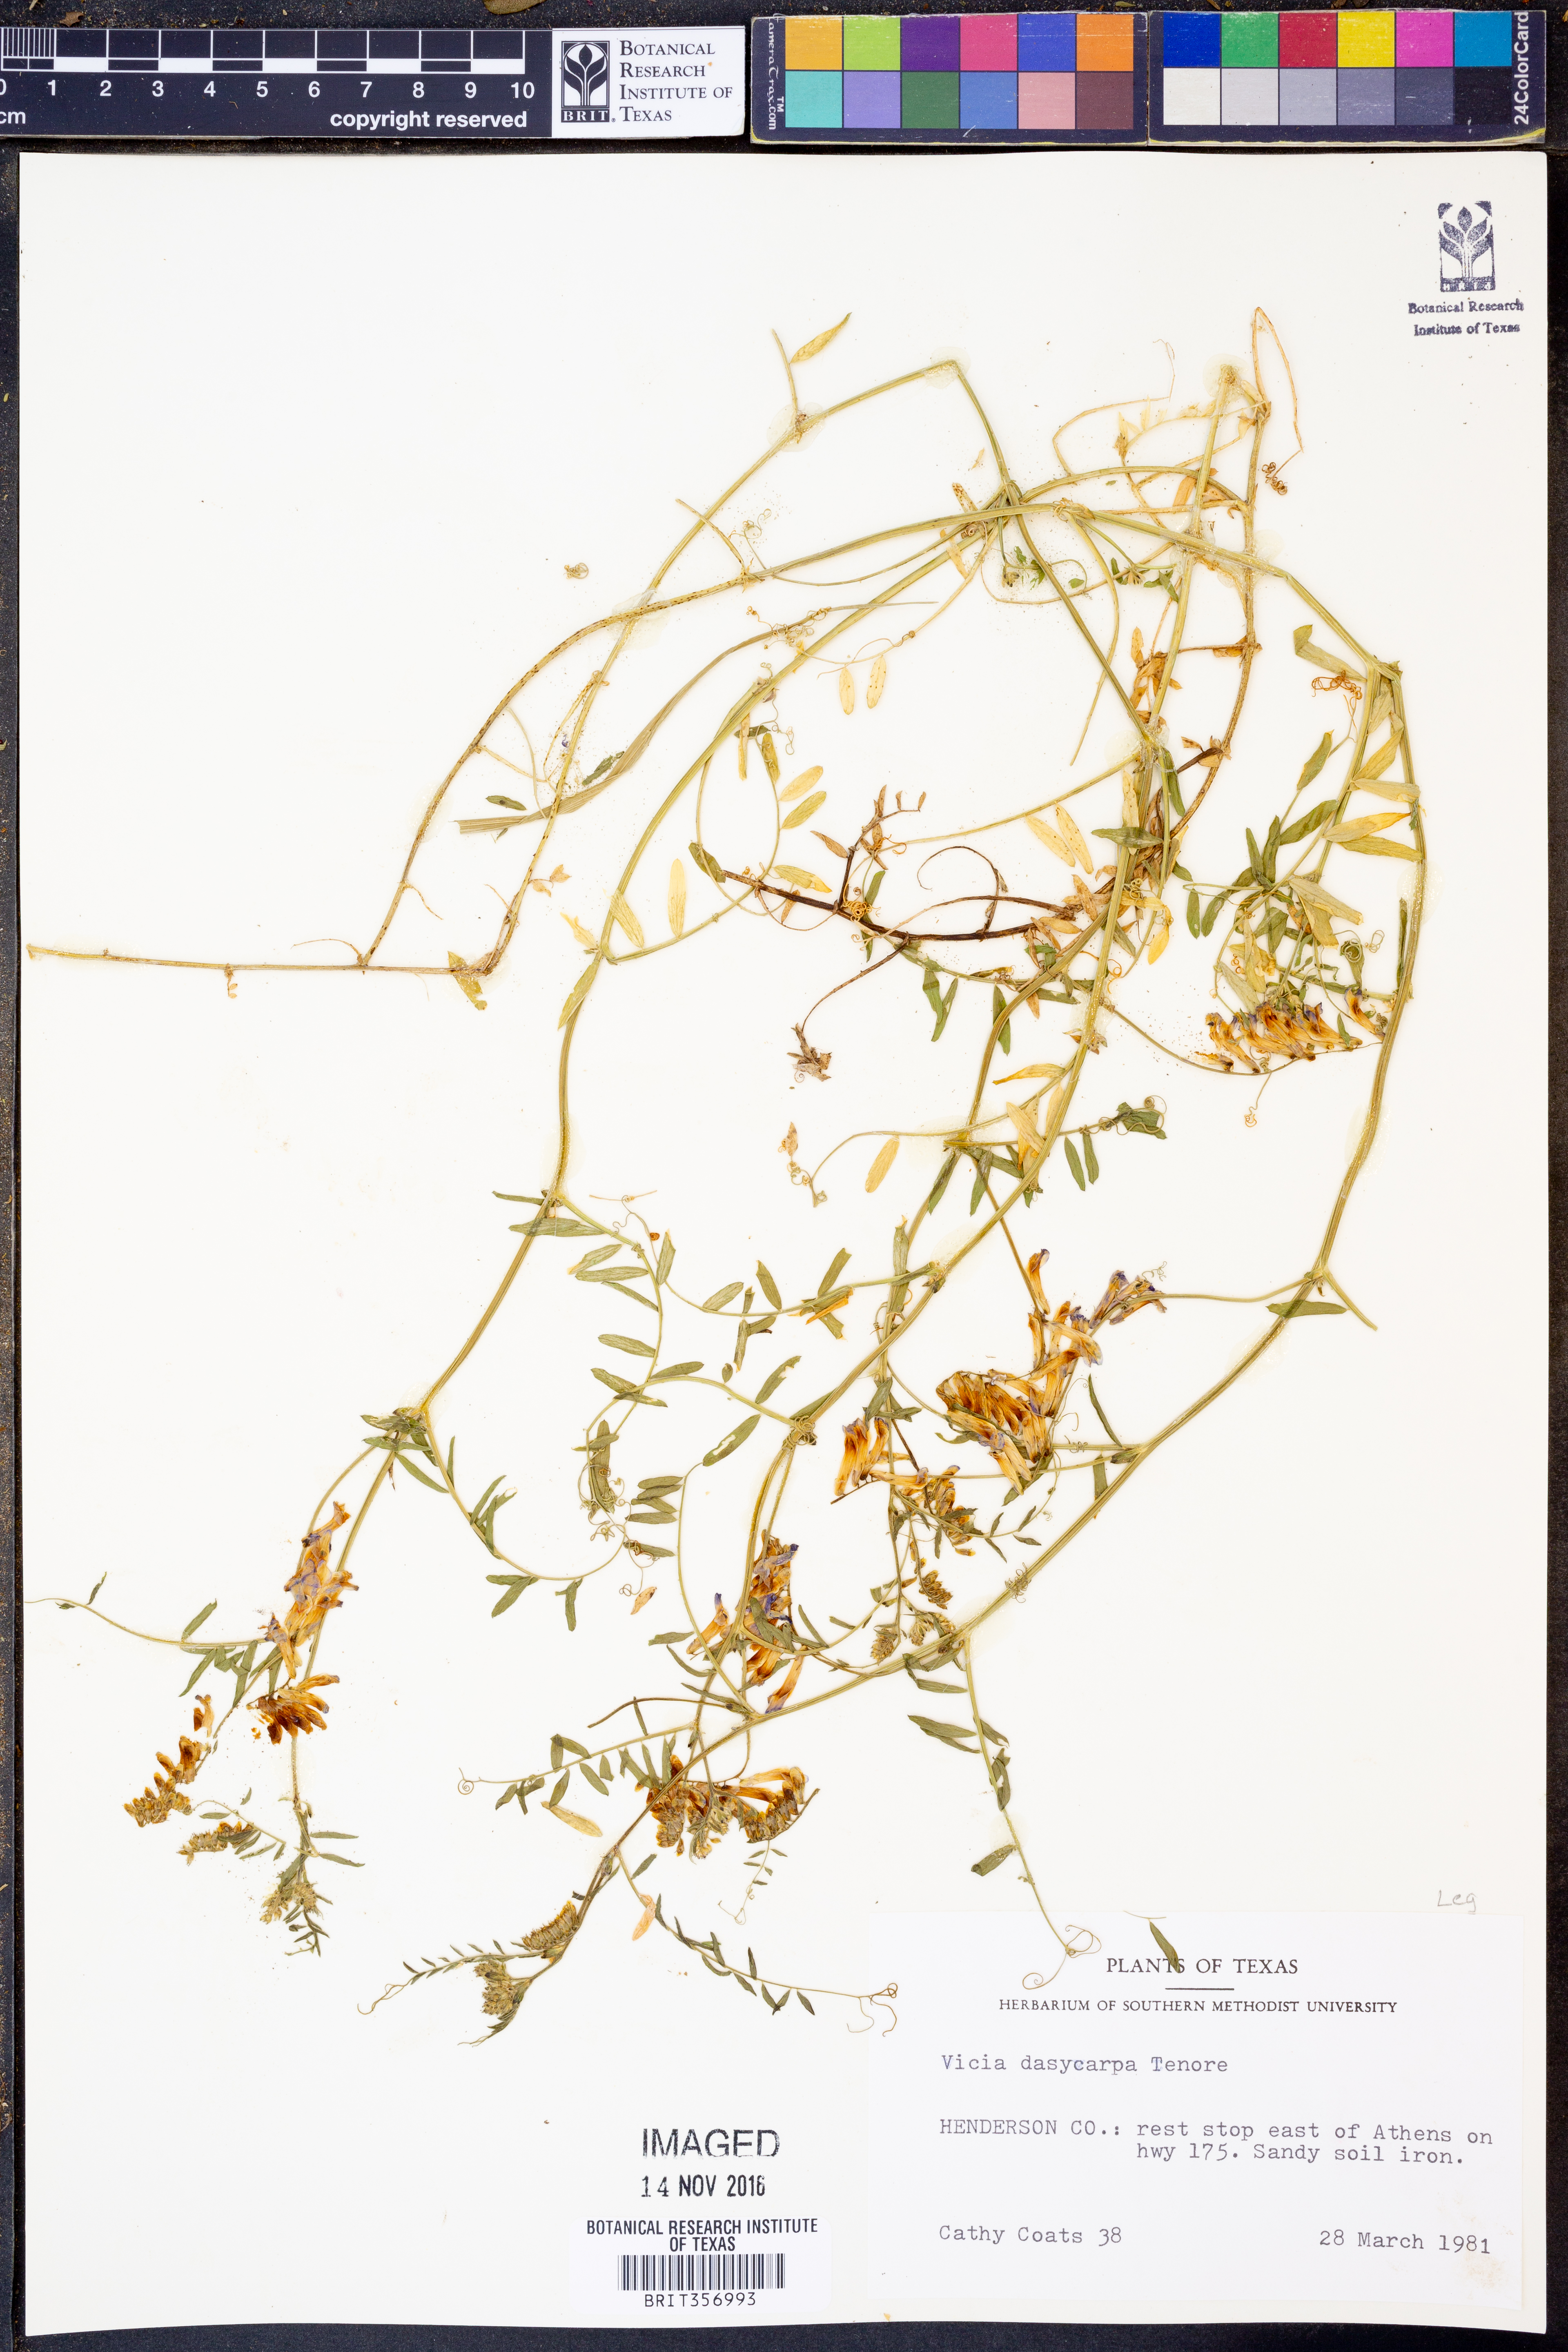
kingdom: Plantae
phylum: Tracheophyta
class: Magnoliopsida
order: Fabales
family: Fabaceae
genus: Vicia
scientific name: Vicia villosa
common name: Fodder vetch
